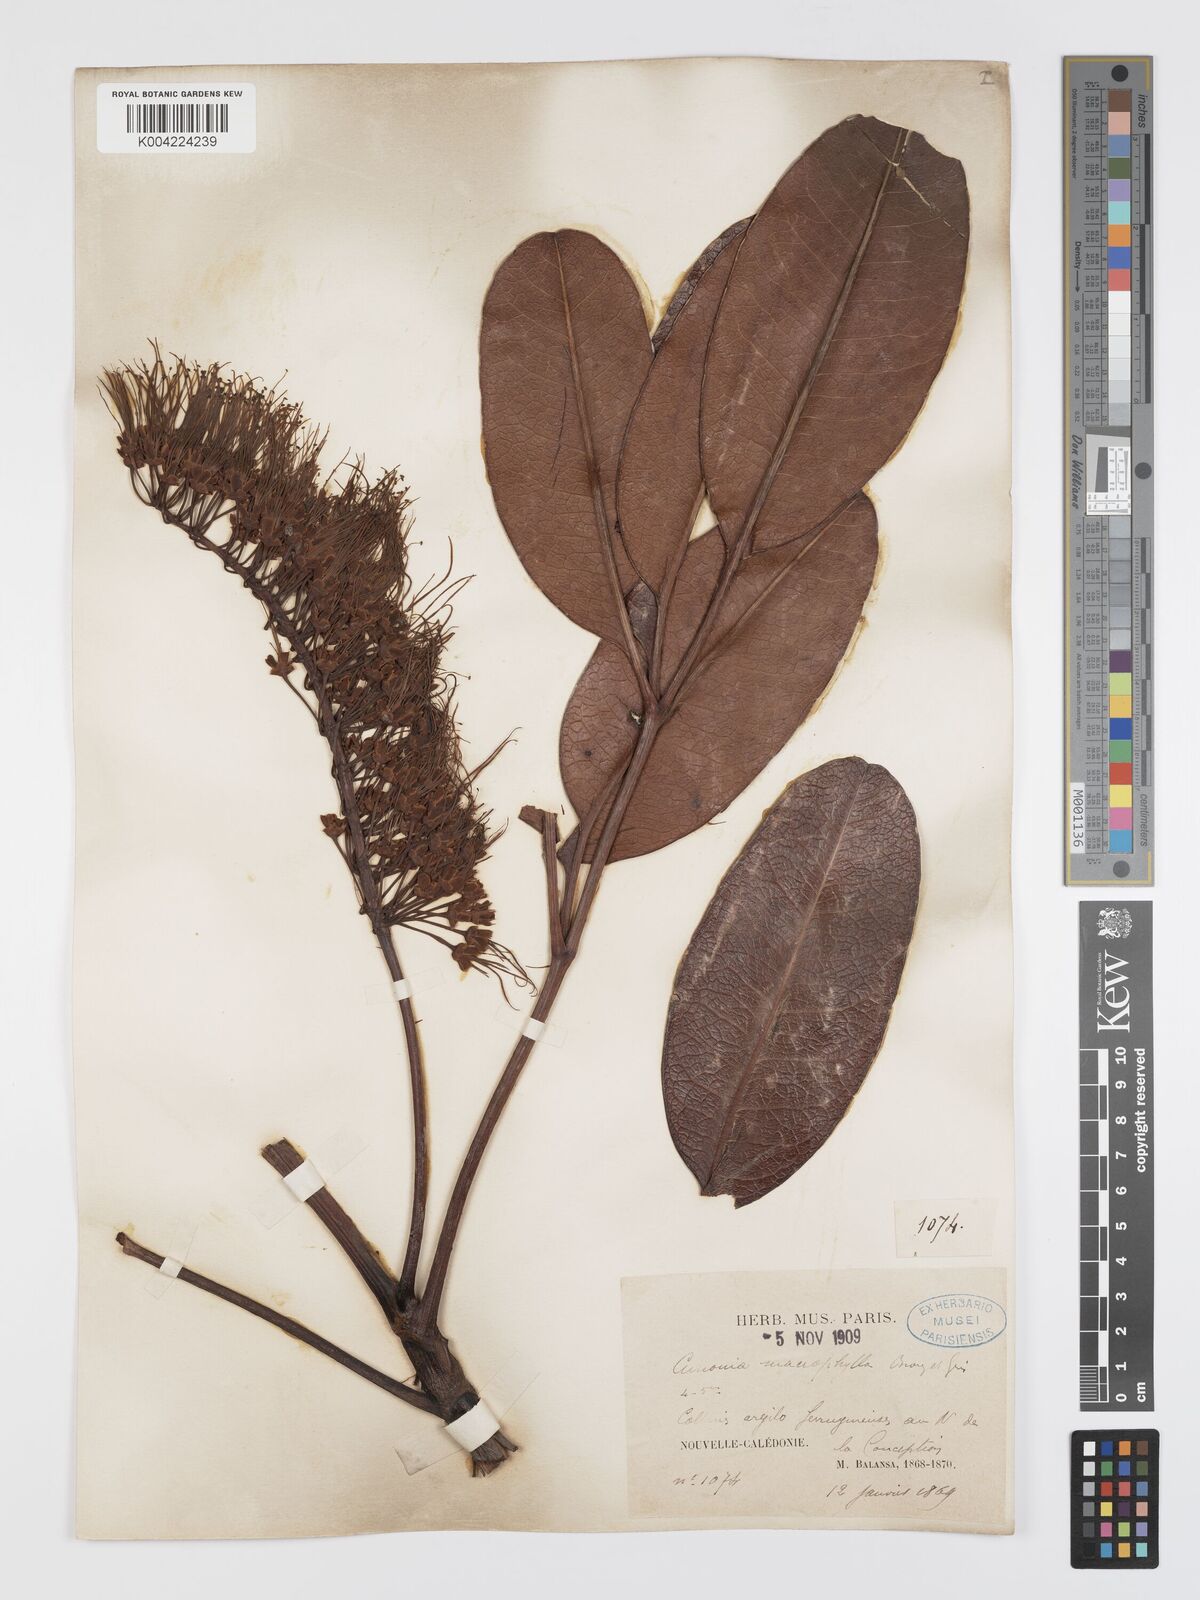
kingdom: Plantae
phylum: Tracheophyta
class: Magnoliopsida
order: Oxalidales
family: Cunoniaceae
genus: Cunonia
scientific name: Cunonia macrophylla
